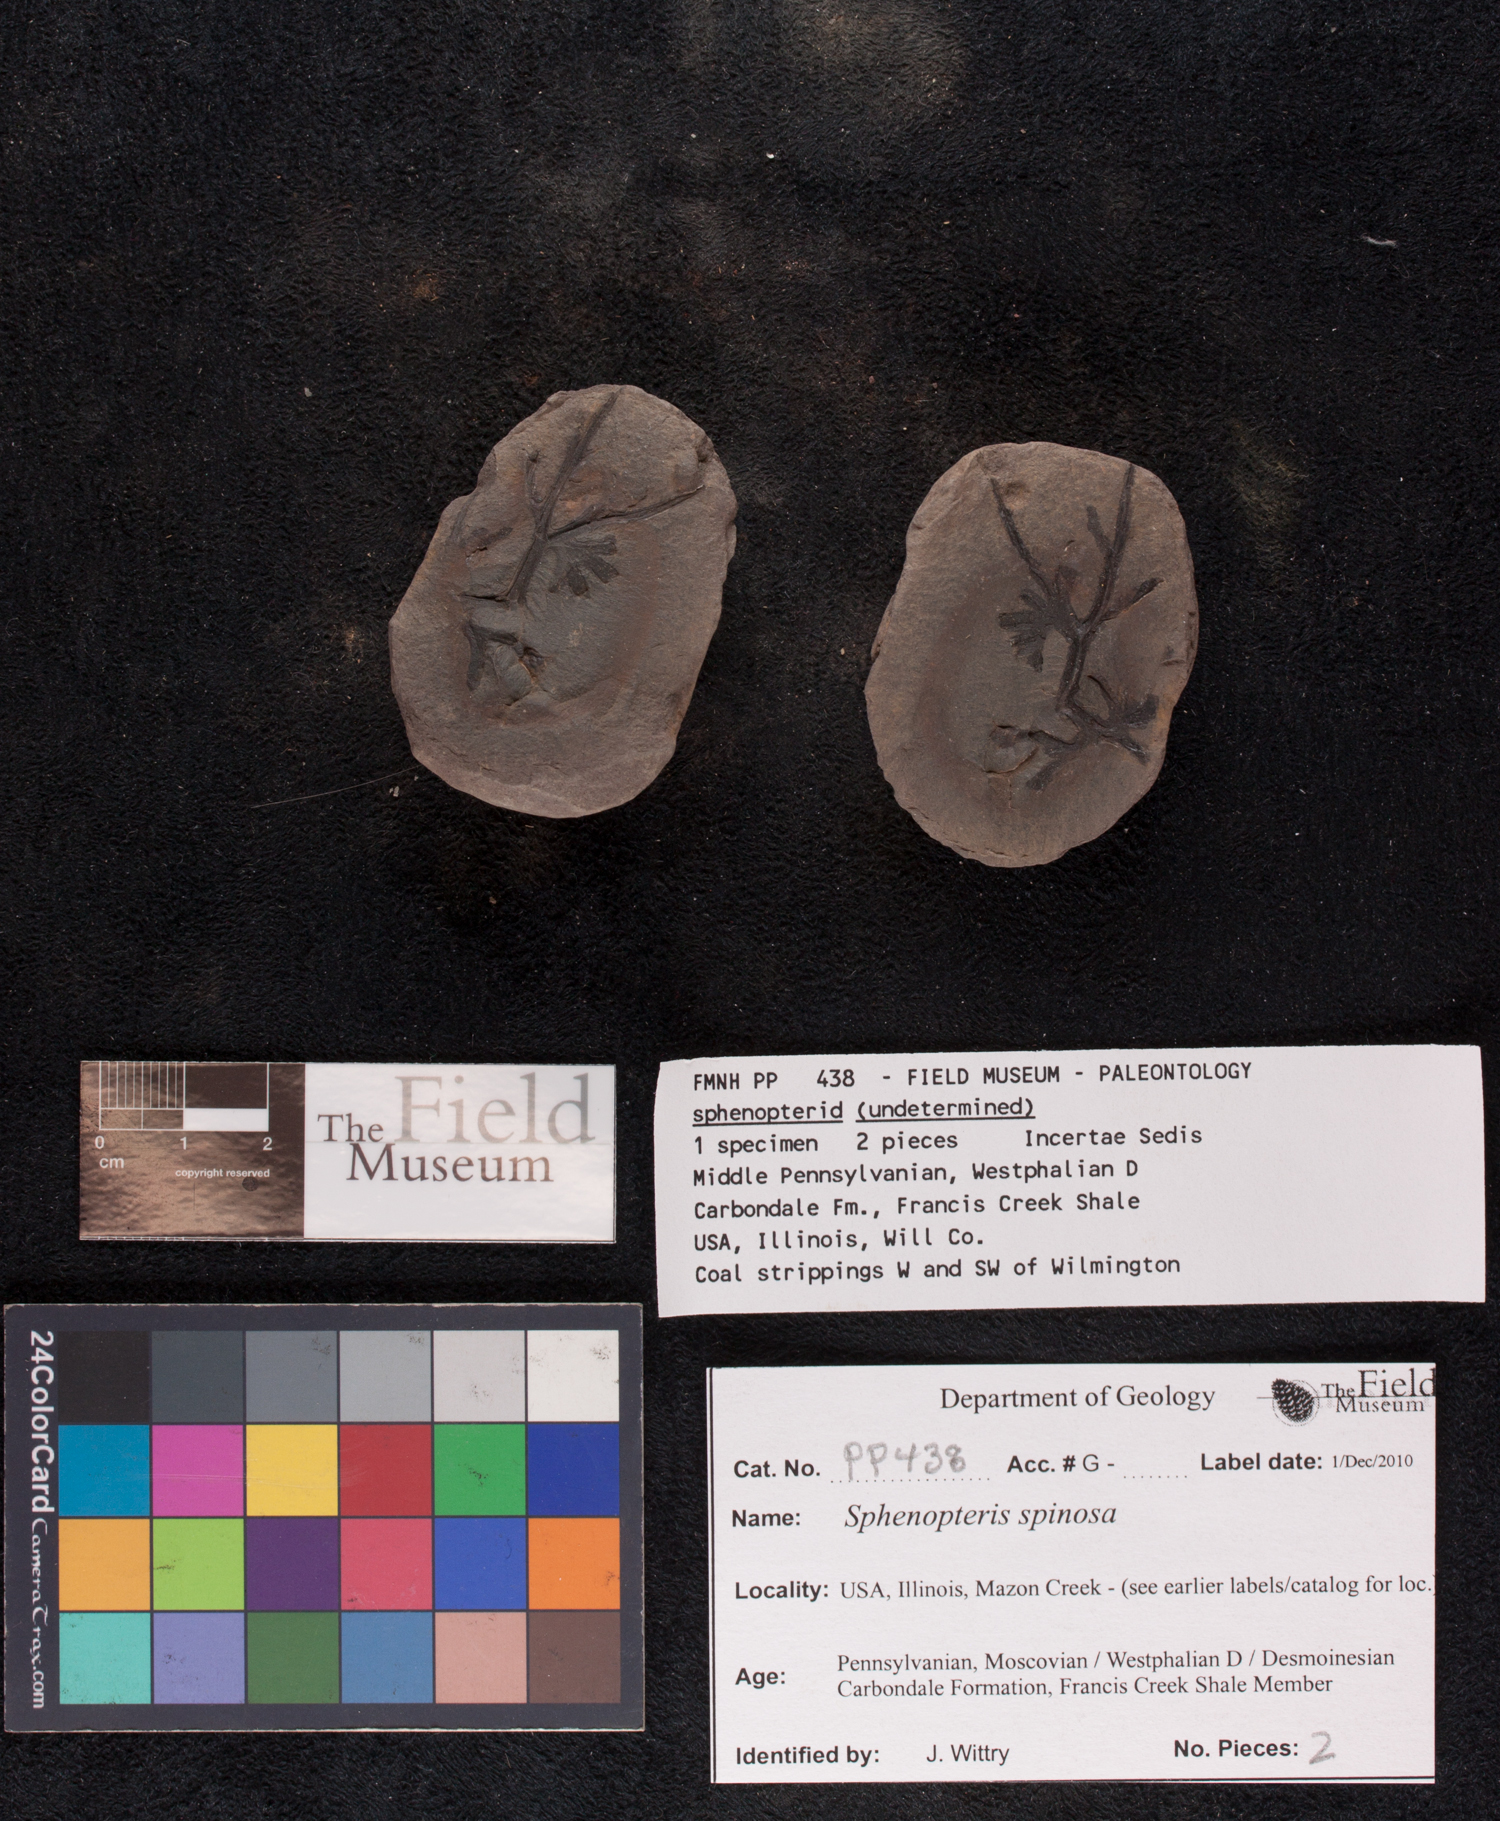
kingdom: Plantae
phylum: Tracheophyta
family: Lyginopteridaceae
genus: Sphenopteris
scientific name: Sphenopteris
